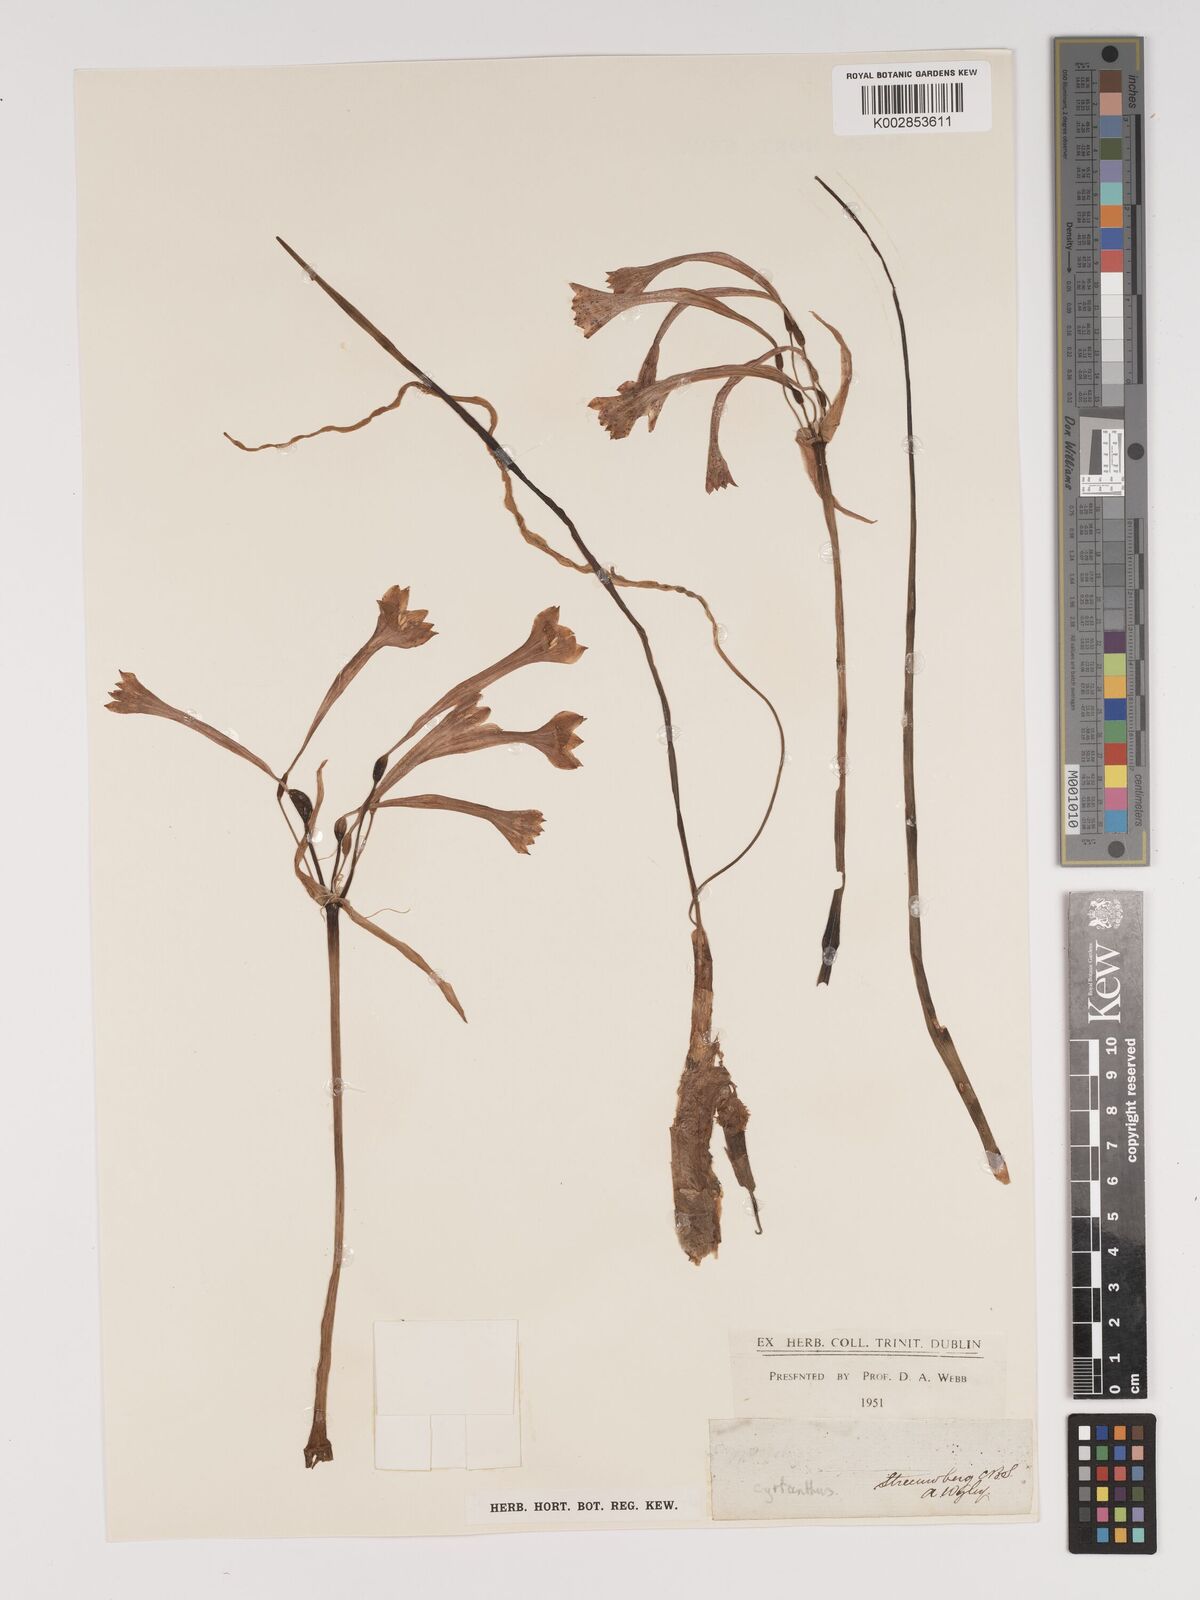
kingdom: Plantae
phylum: Tracheophyta
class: Liliopsida
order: Asparagales
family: Amaryllidaceae
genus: Cyrtanthus
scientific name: Cyrtanthus
